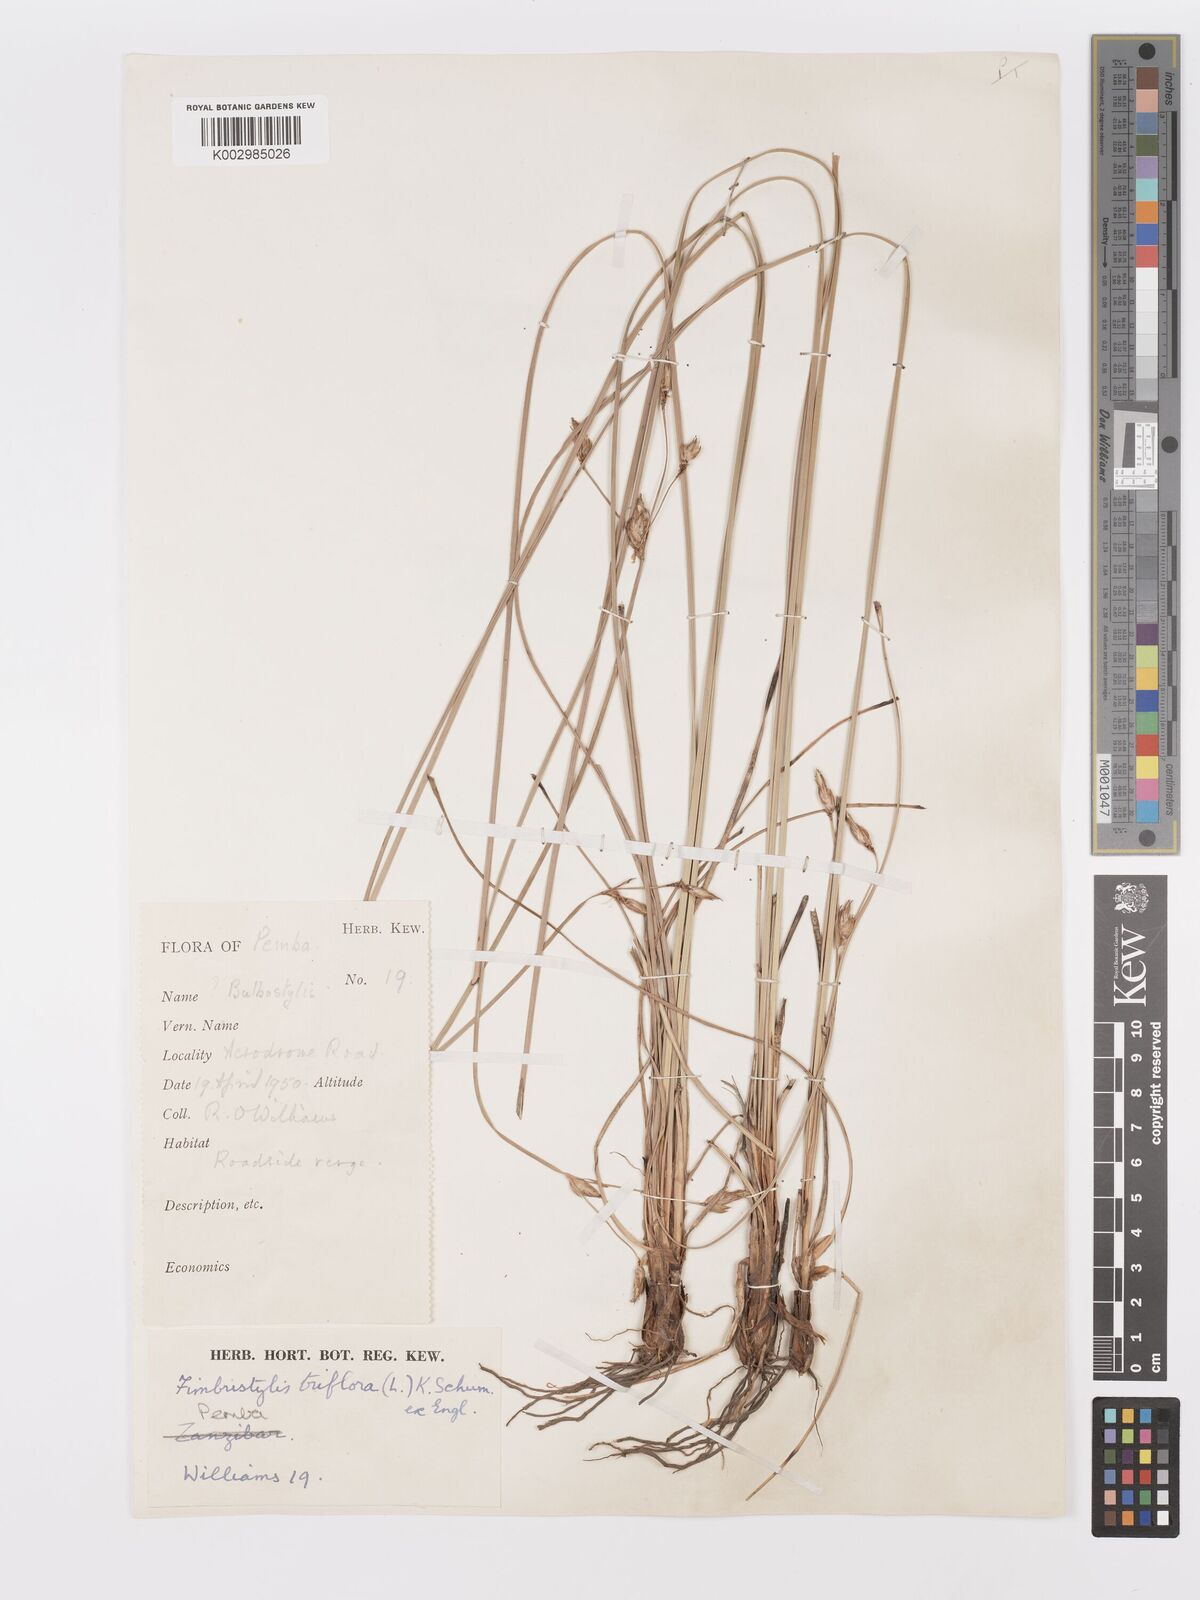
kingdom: Plantae
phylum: Tracheophyta
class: Liliopsida
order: Poales
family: Cyperaceae
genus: Abildgaardia
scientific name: Abildgaardia triflora
